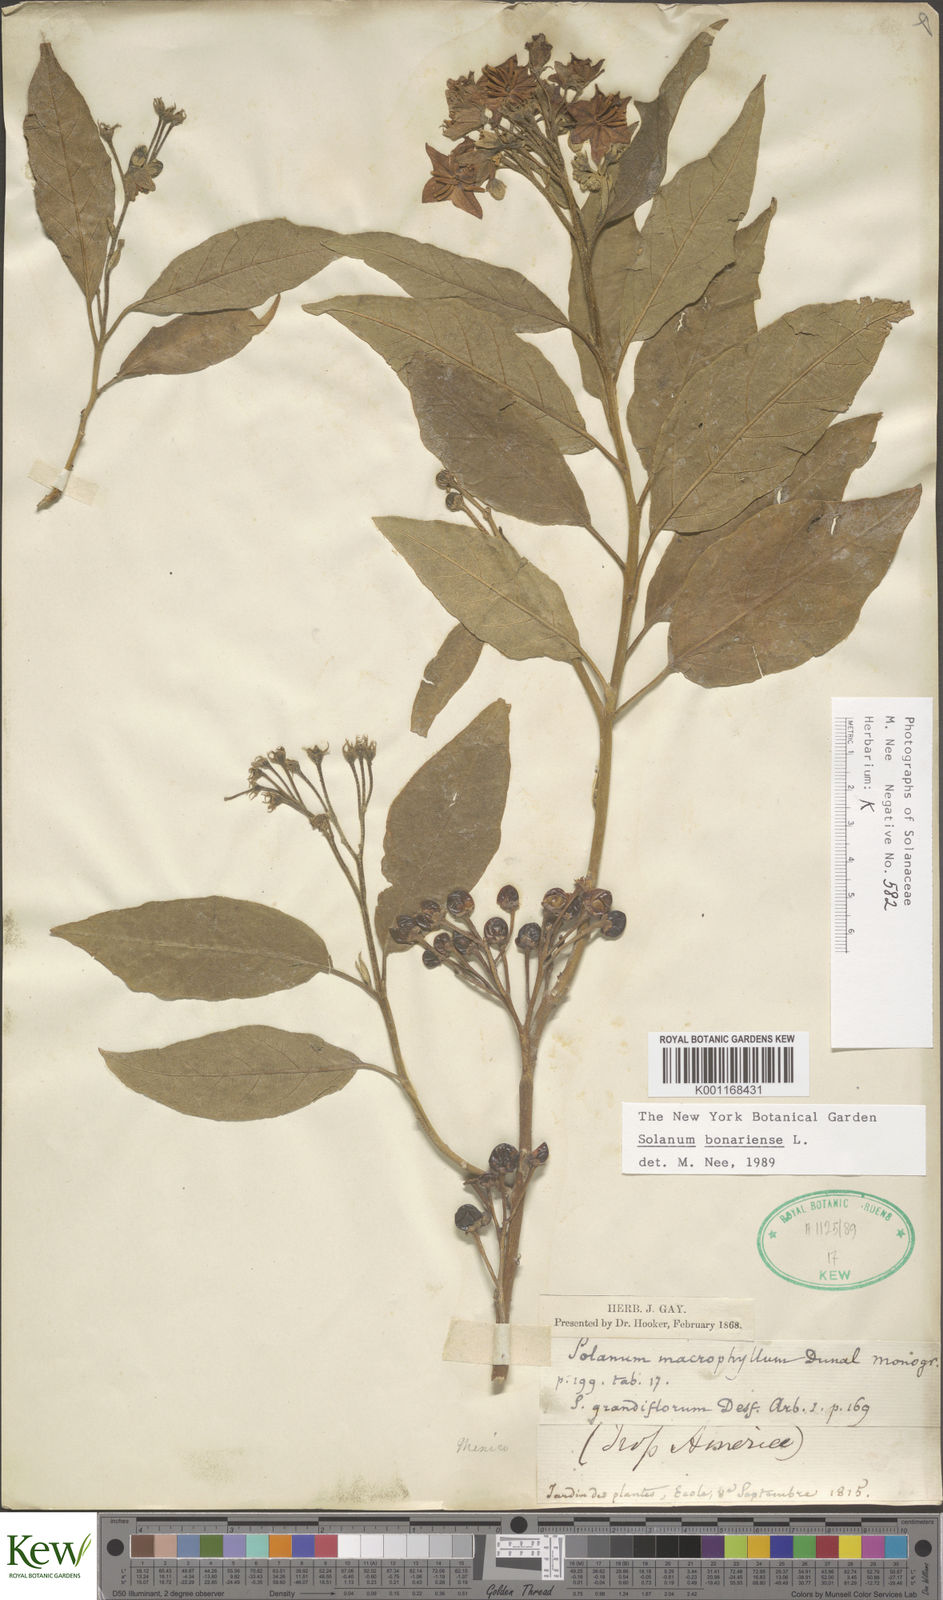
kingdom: Plantae
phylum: Tracheophyta
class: Magnoliopsida
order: Solanales
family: Solanaceae
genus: Solanum
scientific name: Solanum bonariense
